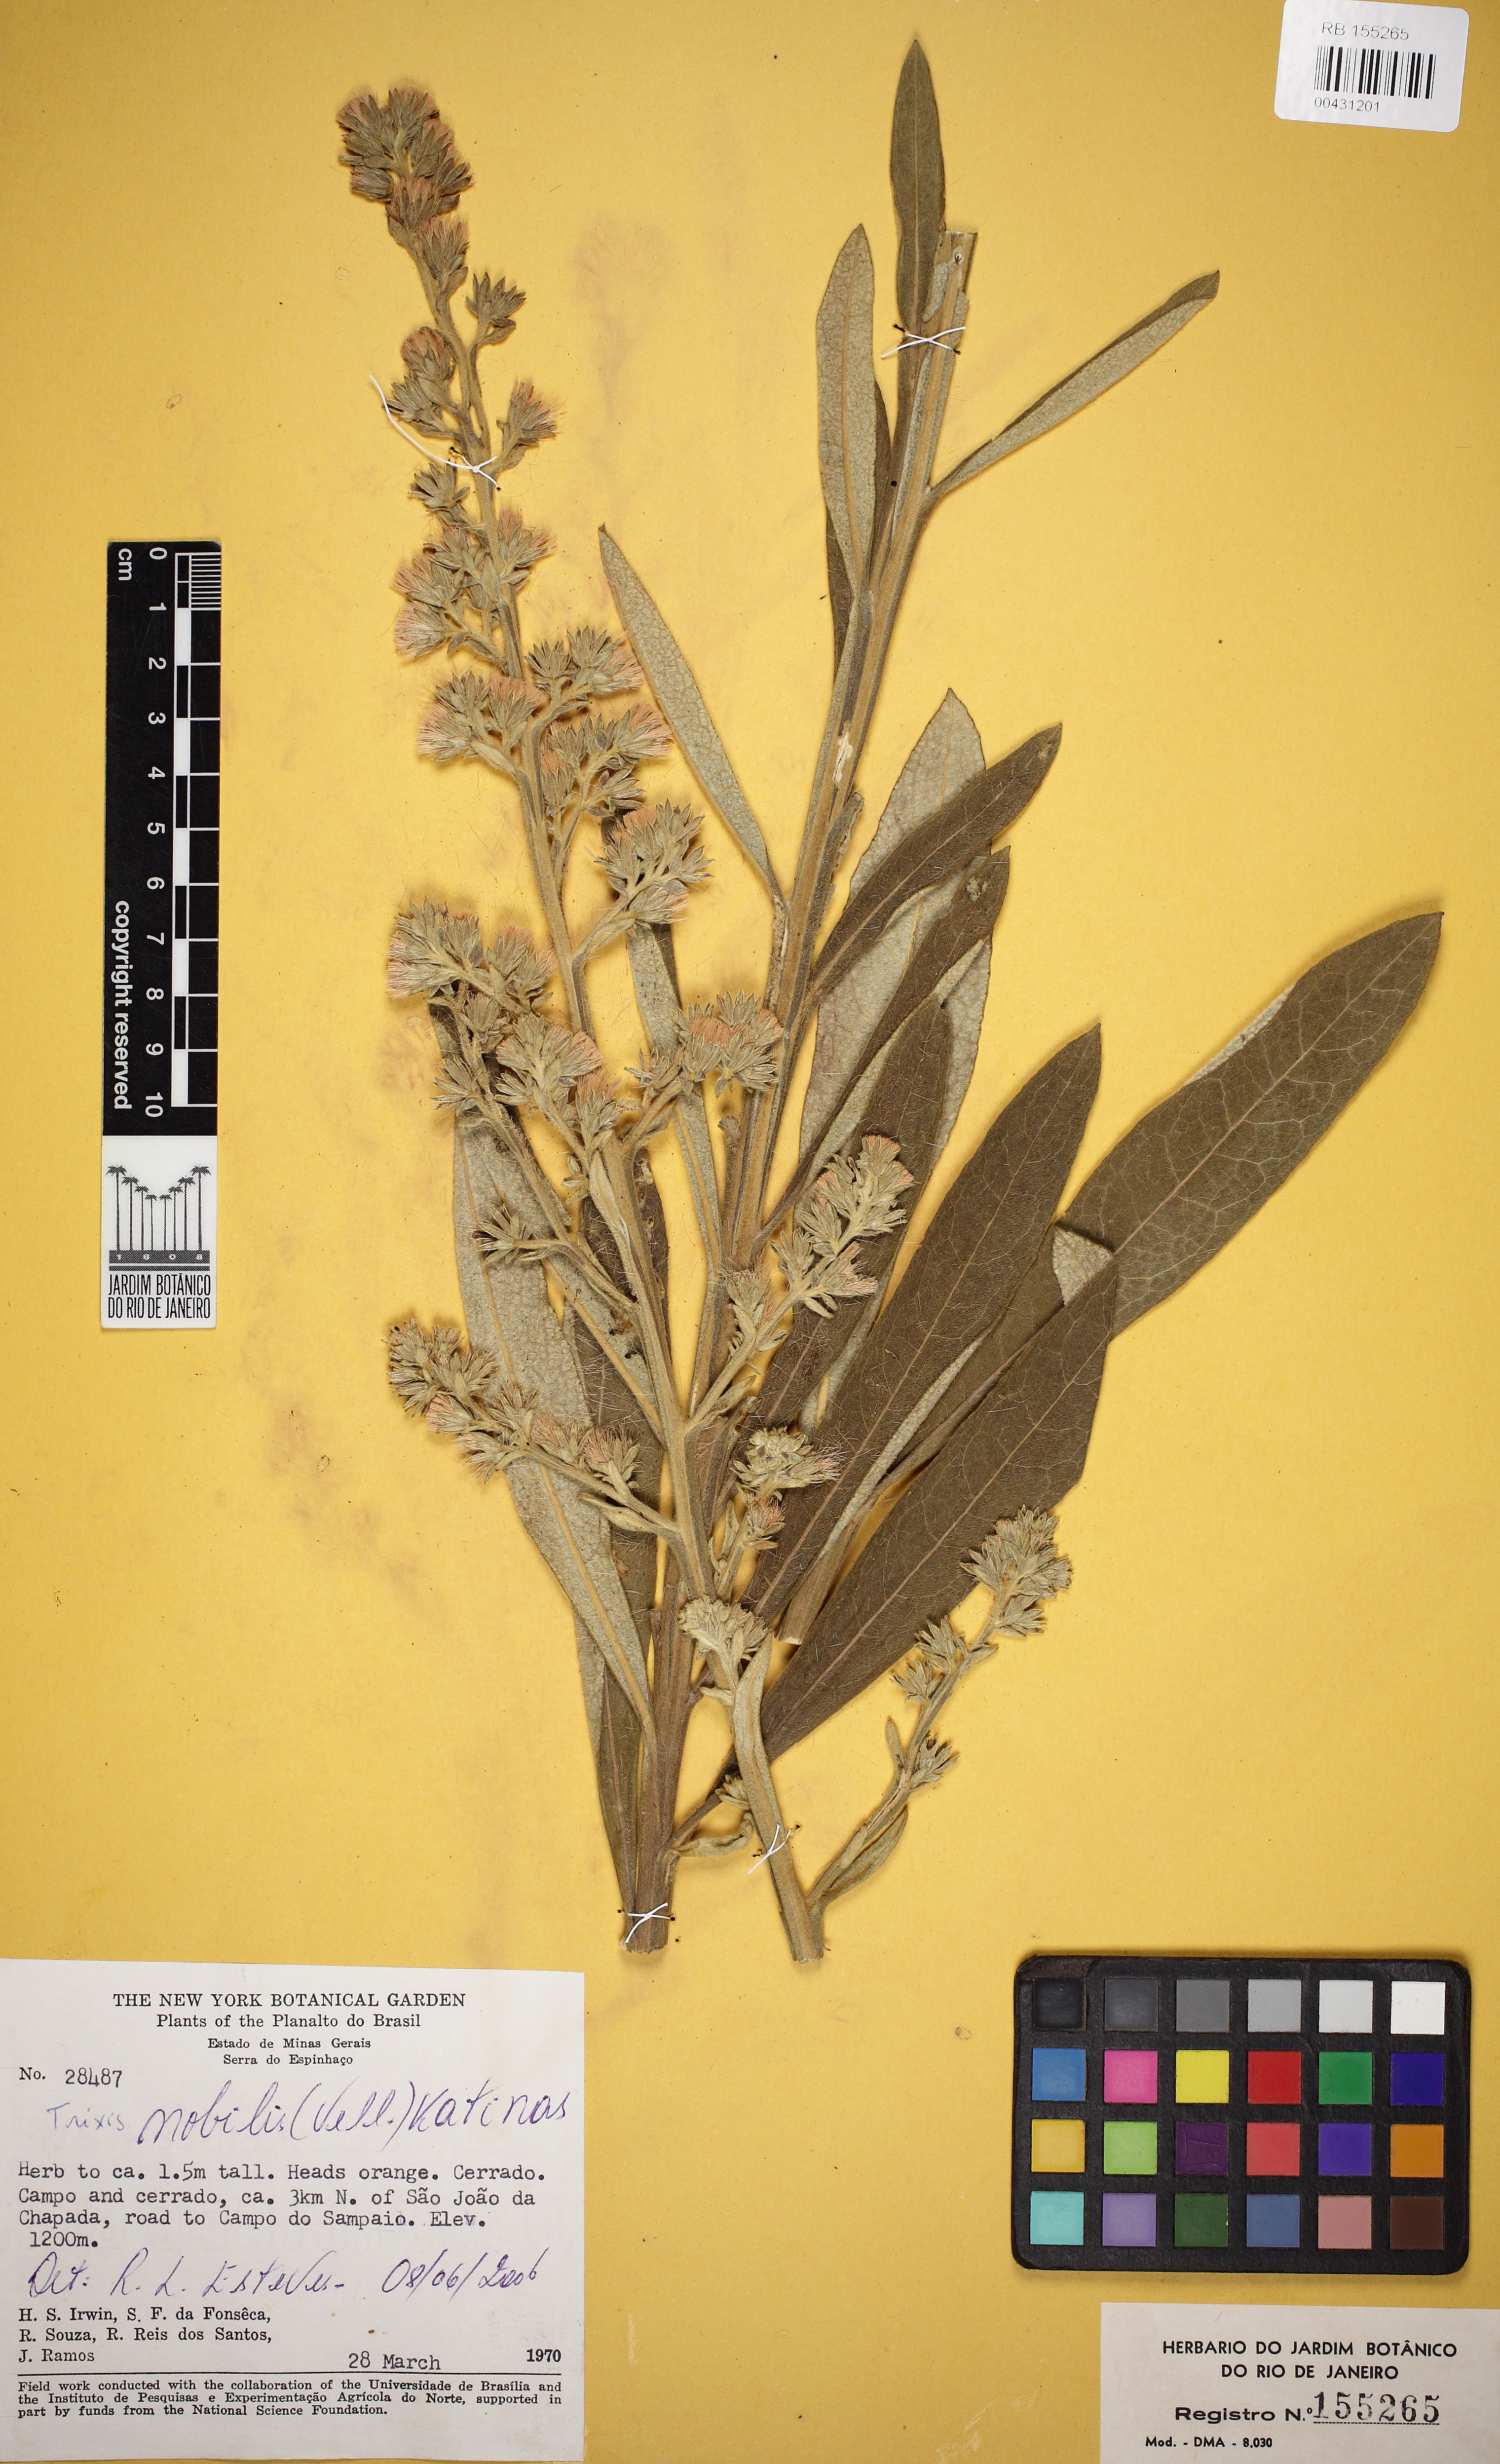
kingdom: Plantae
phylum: Tracheophyta
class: Magnoliopsida
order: Asterales
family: Asteraceae
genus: Trixis
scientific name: Trixis nobilis
